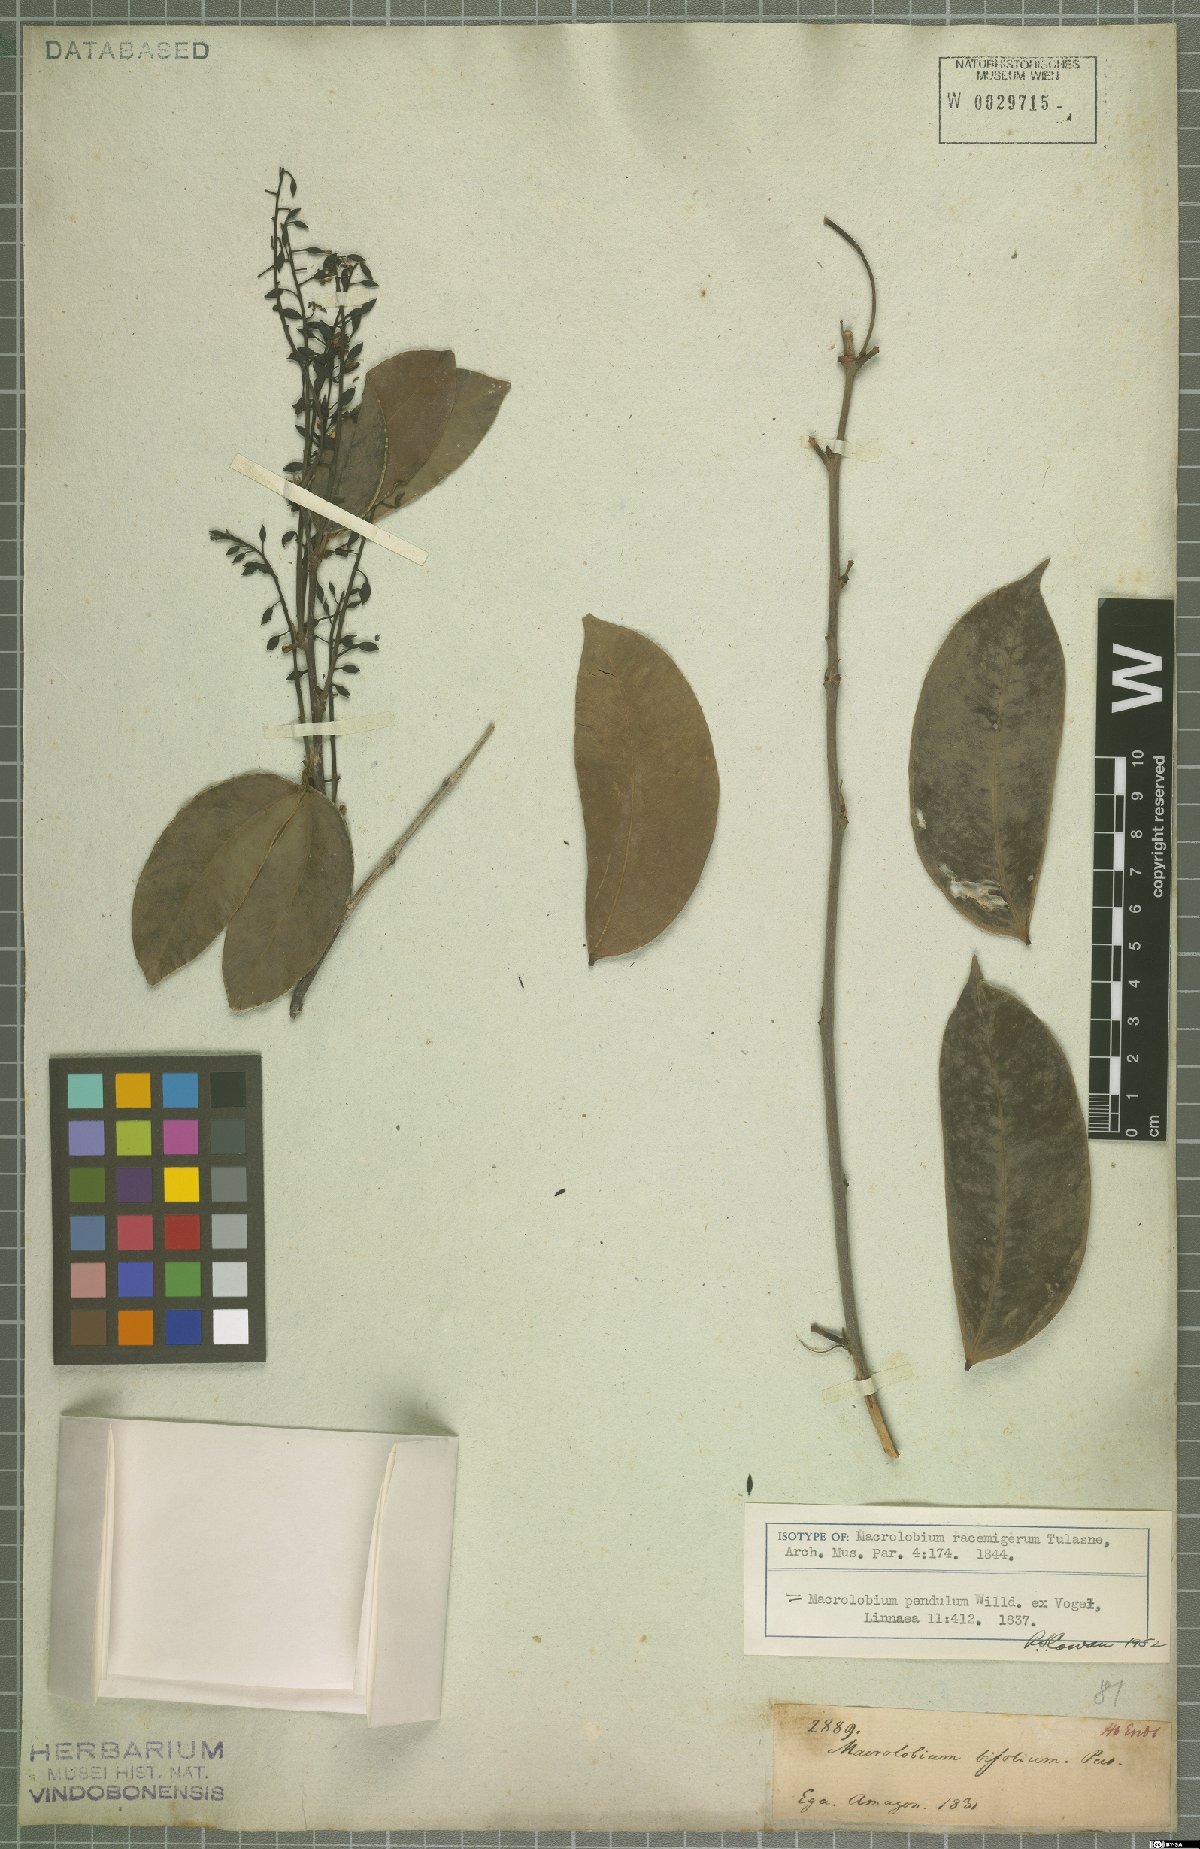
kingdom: Plantae
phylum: Tracheophyta
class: Magnoliopsida
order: Fabales
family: Fabaceae
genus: Macrolobium
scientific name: Macrolobium pendulum
